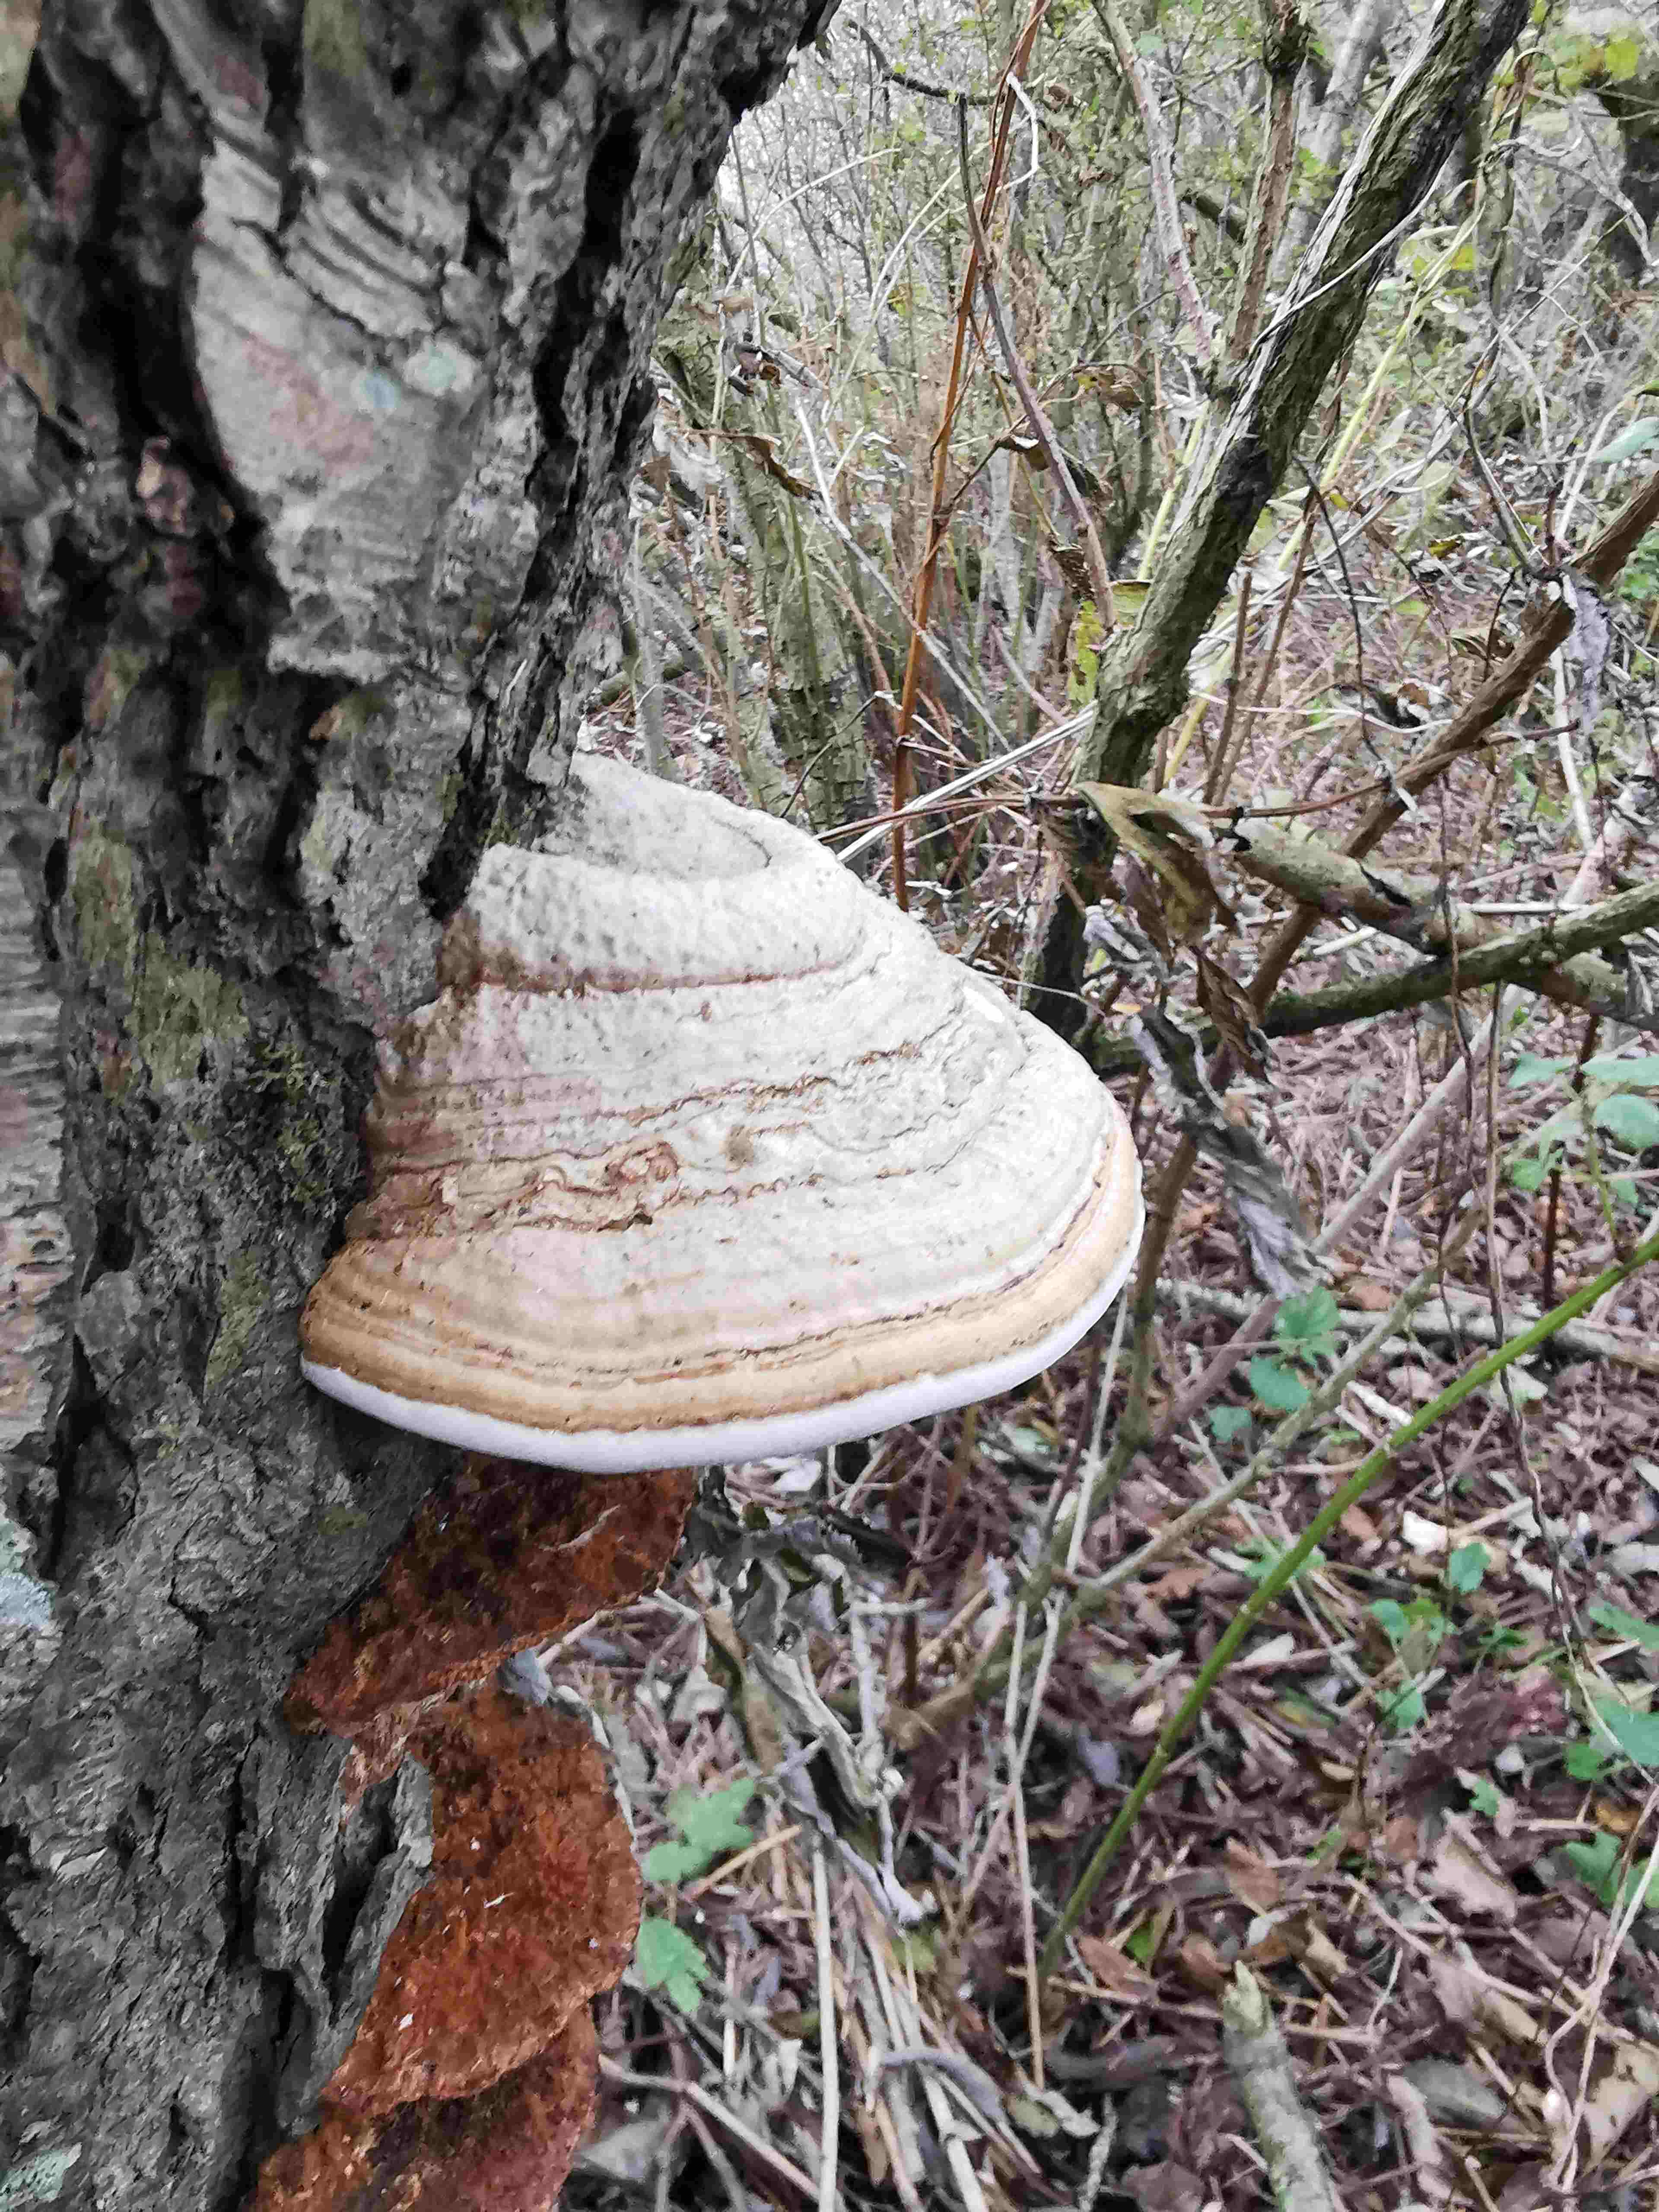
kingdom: Fungi
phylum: Basidiomycota
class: Agaricomycetes
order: Polyporales
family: Polyporaceae
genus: Fomes
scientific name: Fomes fomentarius
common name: tøndersvamp
